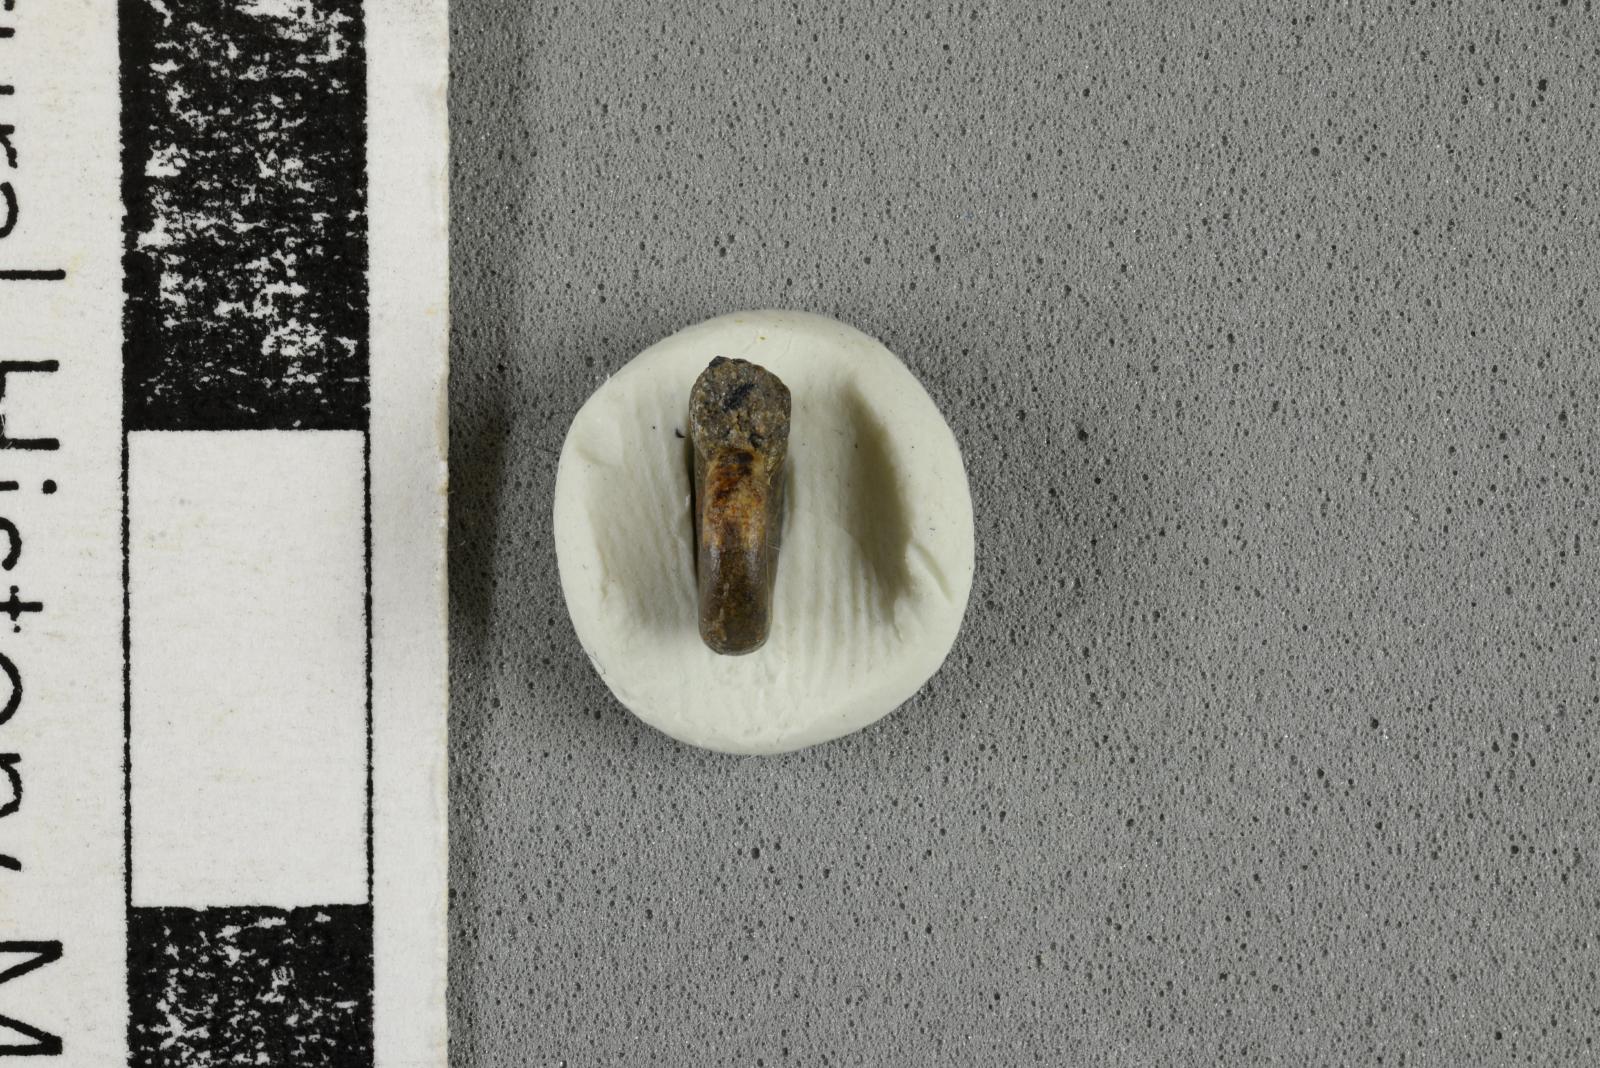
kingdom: Animalia
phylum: Mollusca
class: Cephalopoda
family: Scaphitidae
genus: Yezoites
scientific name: Yezoites puerculus
